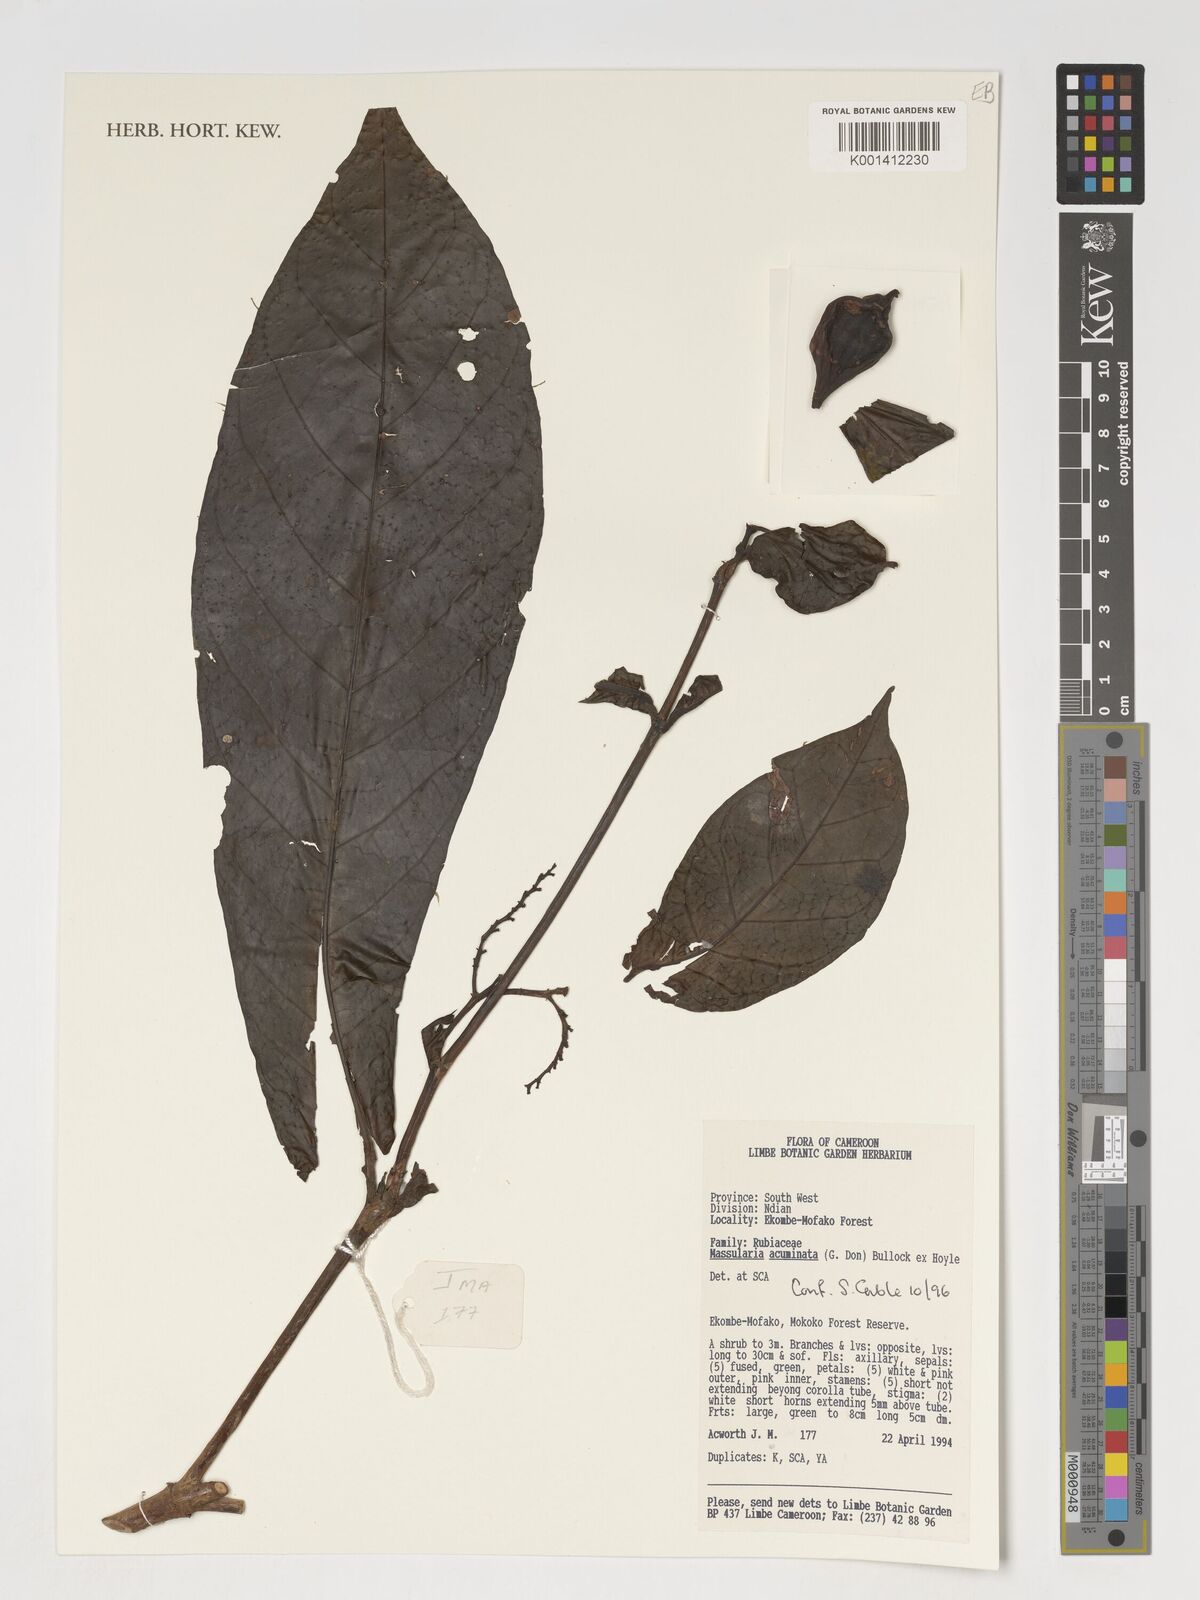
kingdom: Plantae
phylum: Tracheophyta
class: Magnoliopsida
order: Gentianales
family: Rubiaceae
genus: Massularia
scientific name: Massularia acuminata
